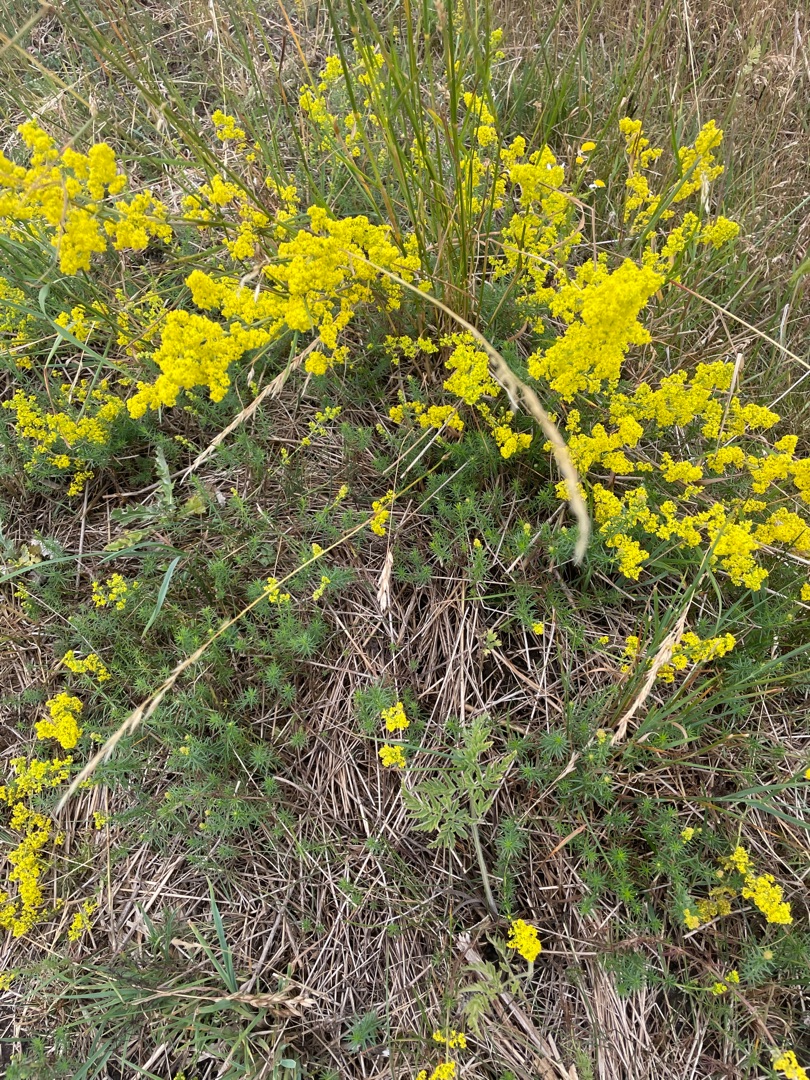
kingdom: Plantae
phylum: Tracheophyta
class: Magnoliopsida
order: Gentianales
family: Rubiaceae
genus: Galium
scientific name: Galium verum
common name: Gul snerre
